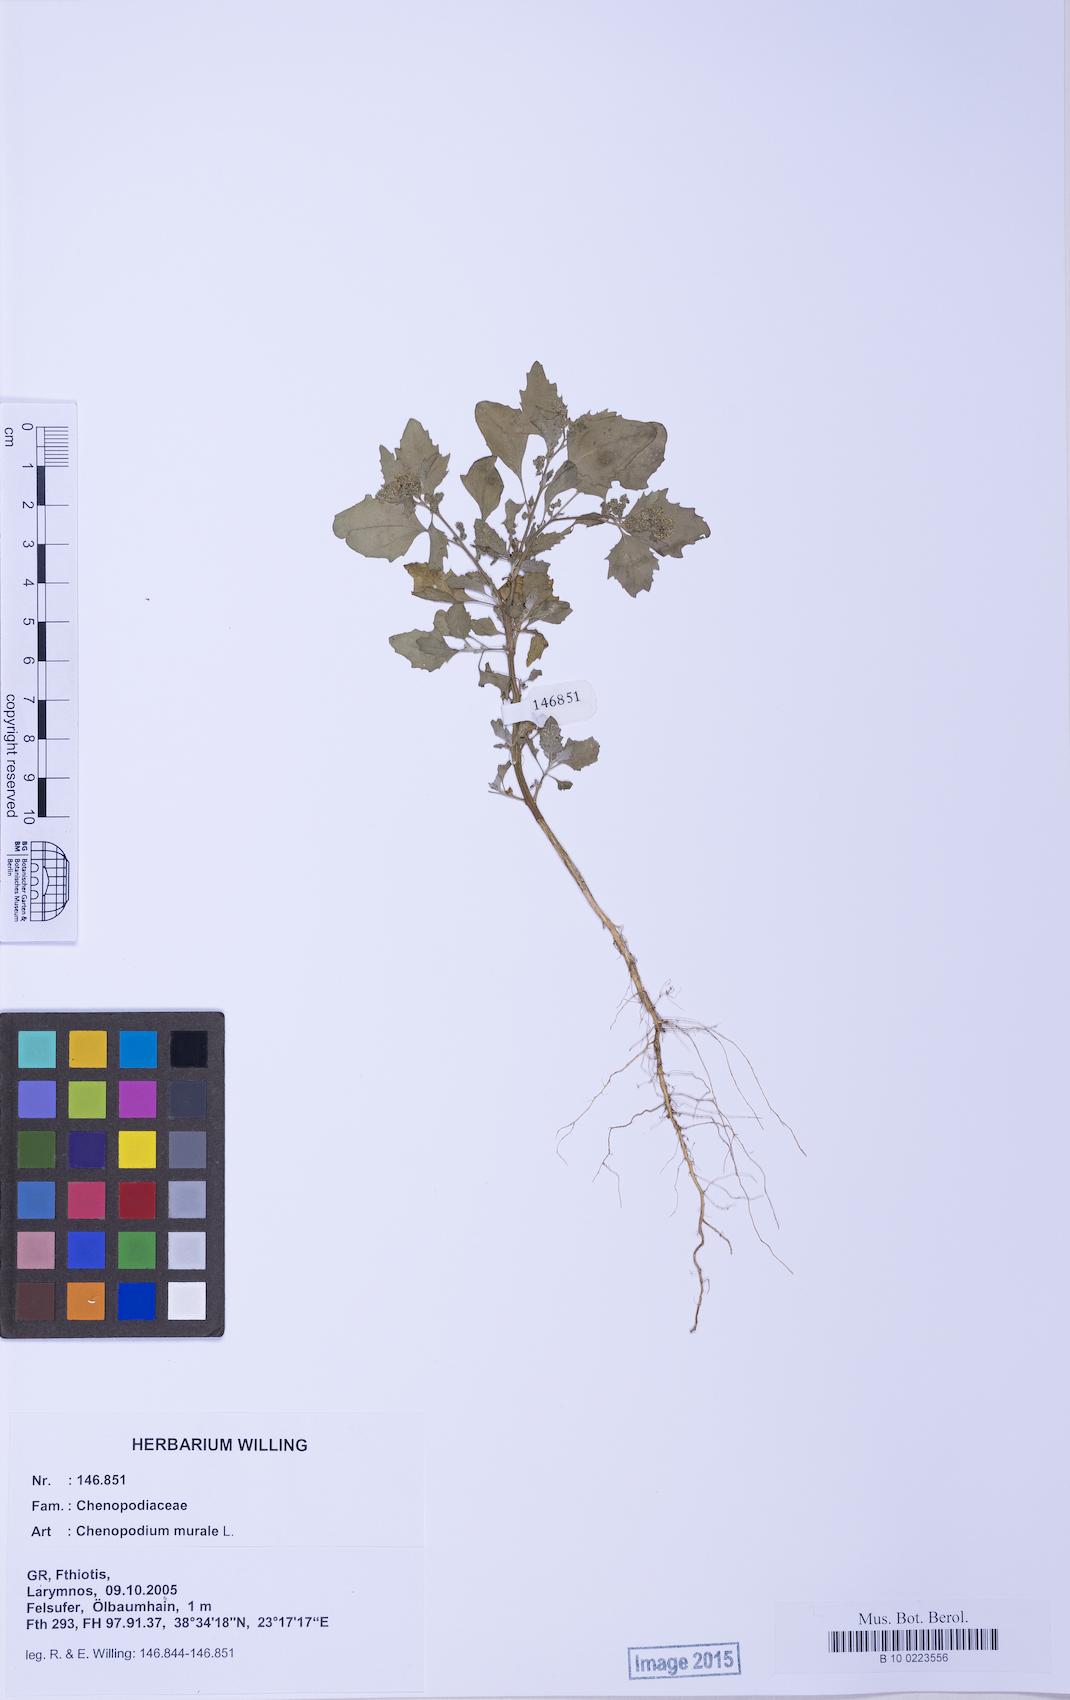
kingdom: Plantae
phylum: Tracheophyta
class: Magnoliopsida
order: Caryophyllales
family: Amaranthaceae
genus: Chenopodiastrum
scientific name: Chenopodiastrum murale
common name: Sowbane
